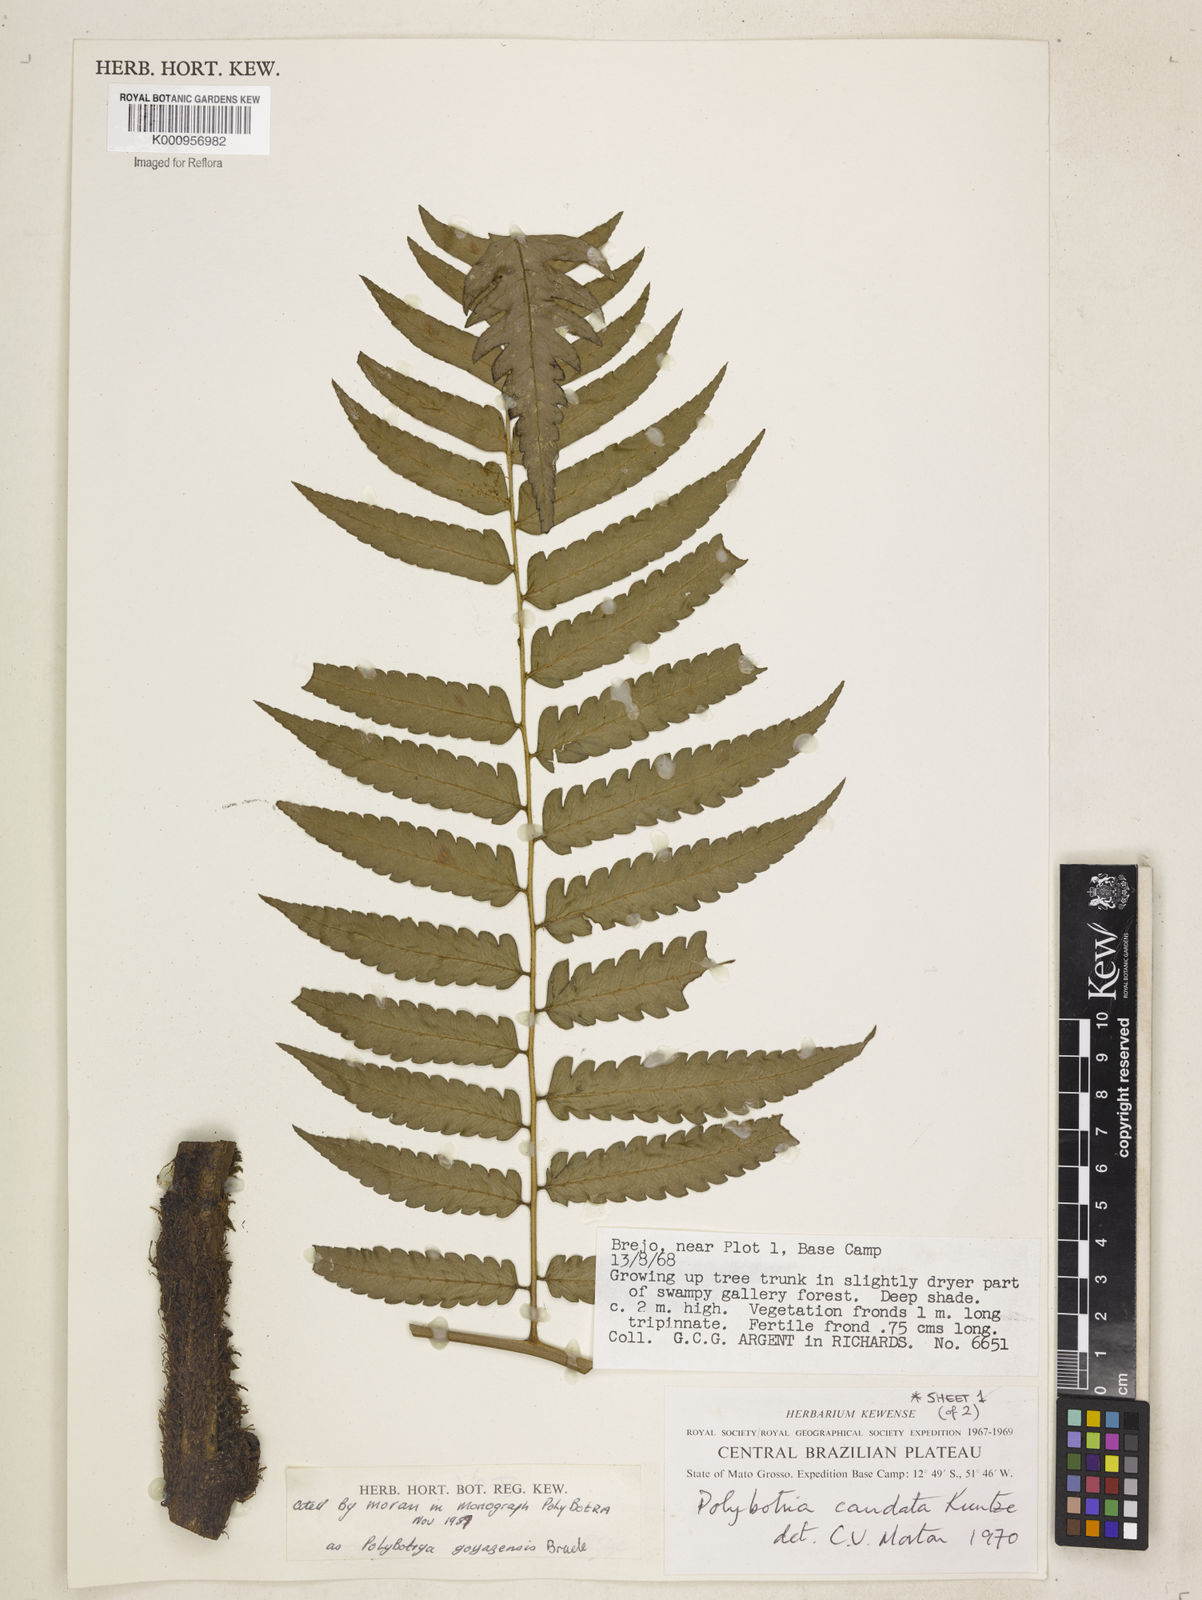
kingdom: Plantae
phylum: Tracheophyta
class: Polypodiopsida
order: Polypodiales
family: Dryopteridaceae
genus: Polybotrya
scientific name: Polybotrya goyazensis
